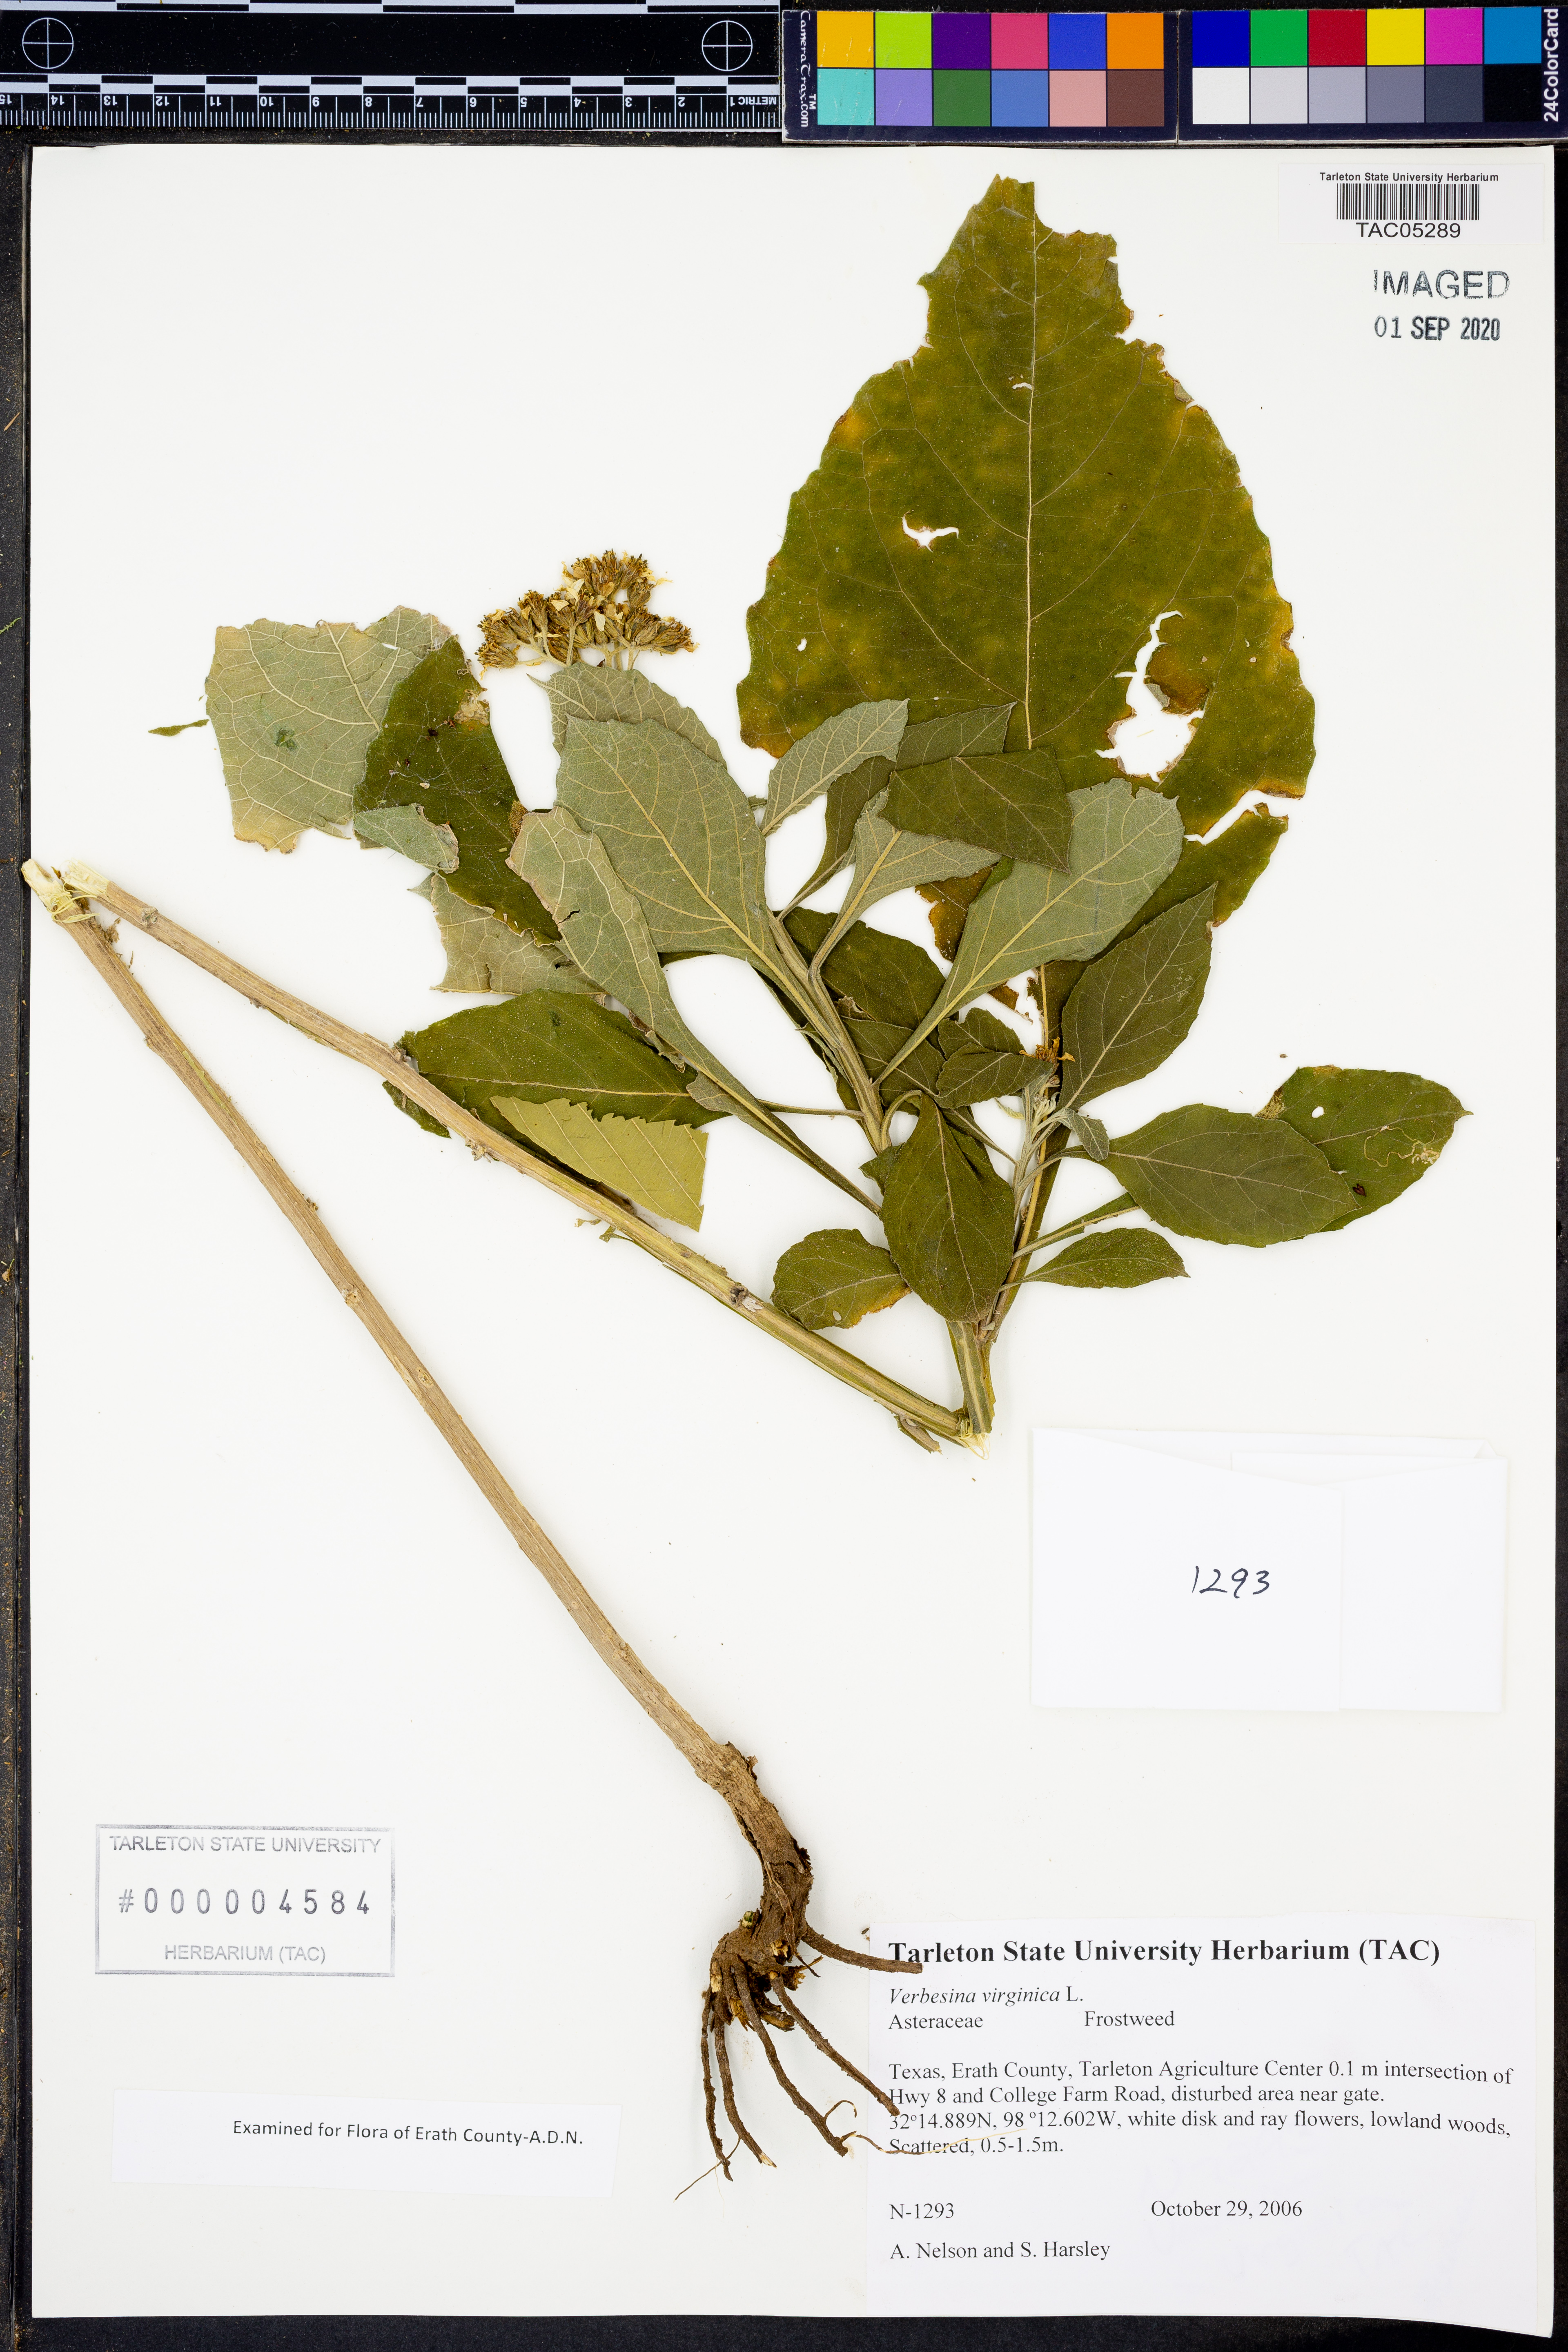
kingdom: Plantae
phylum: Tracheophyta
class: Magnoliopsida
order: Asterales
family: Asteraceae
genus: Verbesina
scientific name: Verbesina virginica
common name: Frostweed
